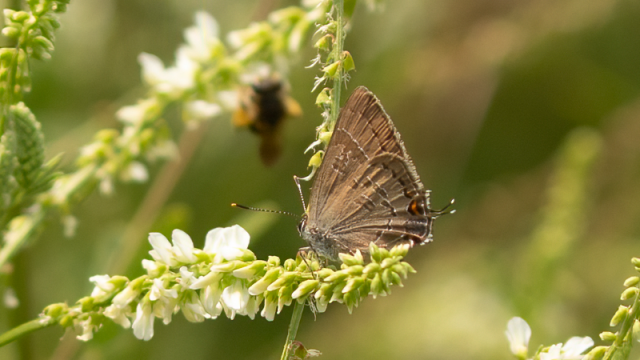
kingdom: Animalia
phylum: Arthropoda
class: Insecta
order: Lepidoptera
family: Lycaenidae
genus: Satyrium
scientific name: Satyrium calanus
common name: Banded Hairstreak
